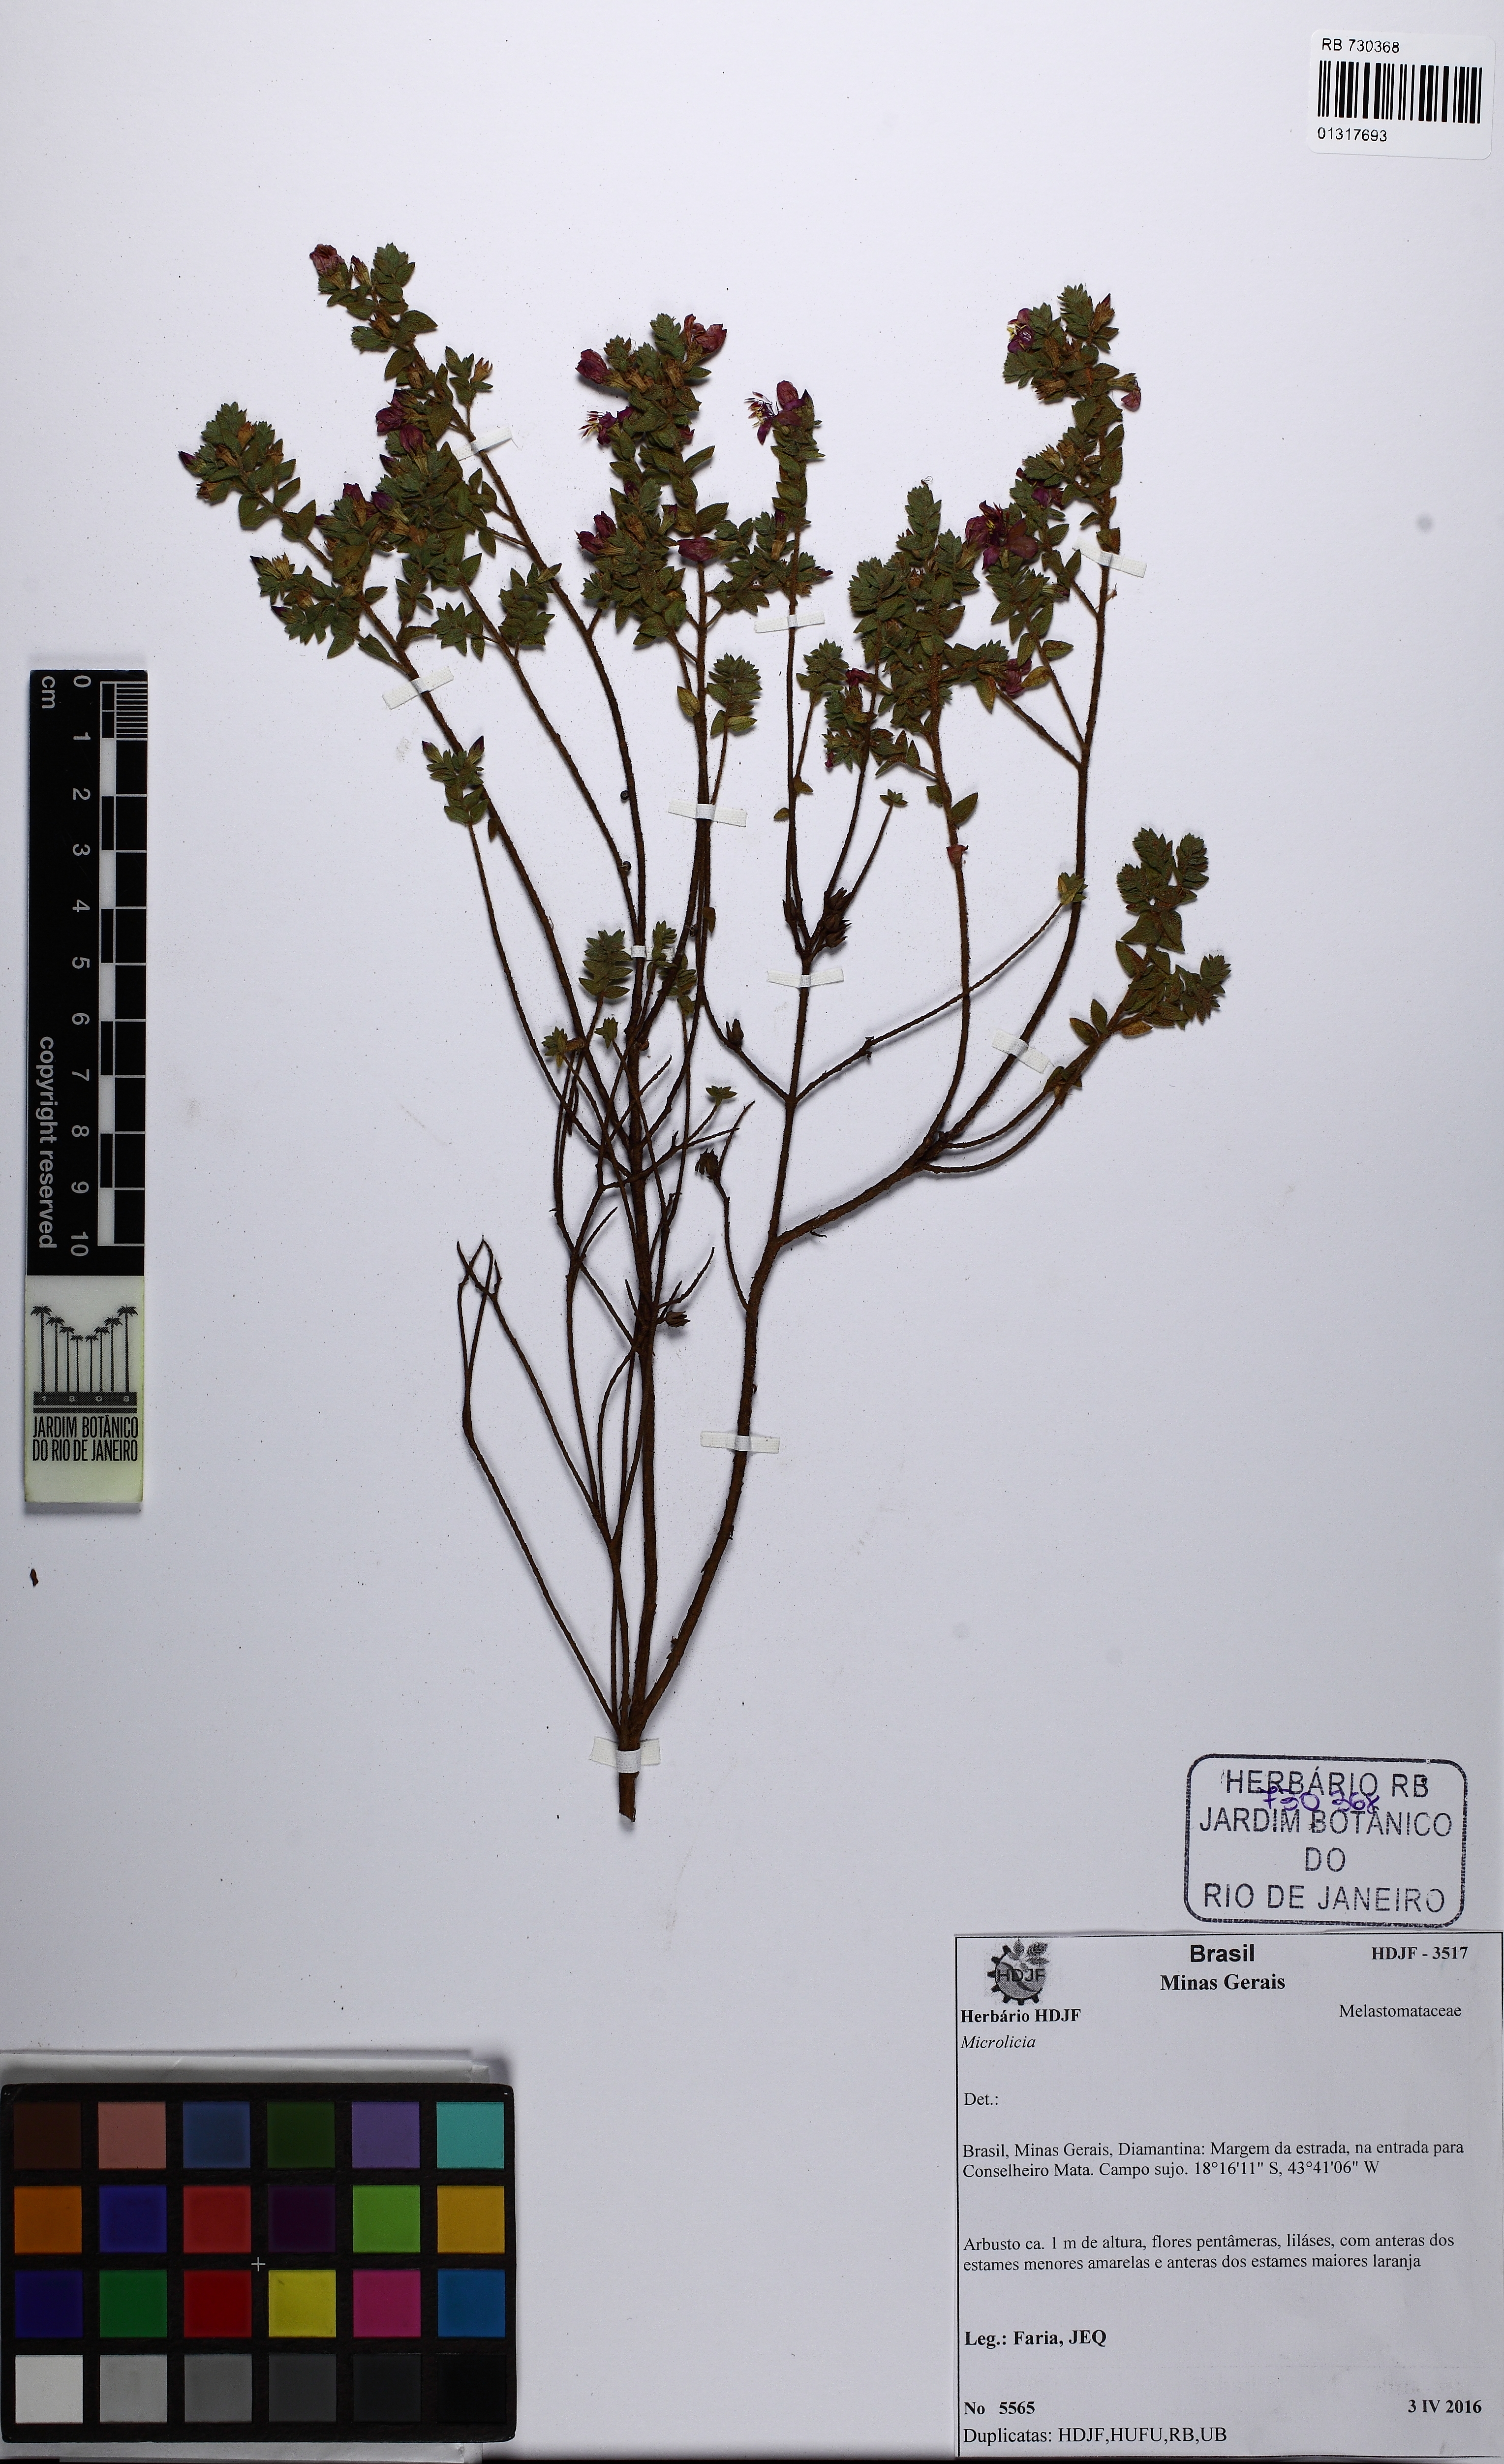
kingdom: Plantae
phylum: Tracheophyta
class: Magnoliopsida
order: Myrtales
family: Melastomataceae
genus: Microlicia
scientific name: Microlicia graveolens
